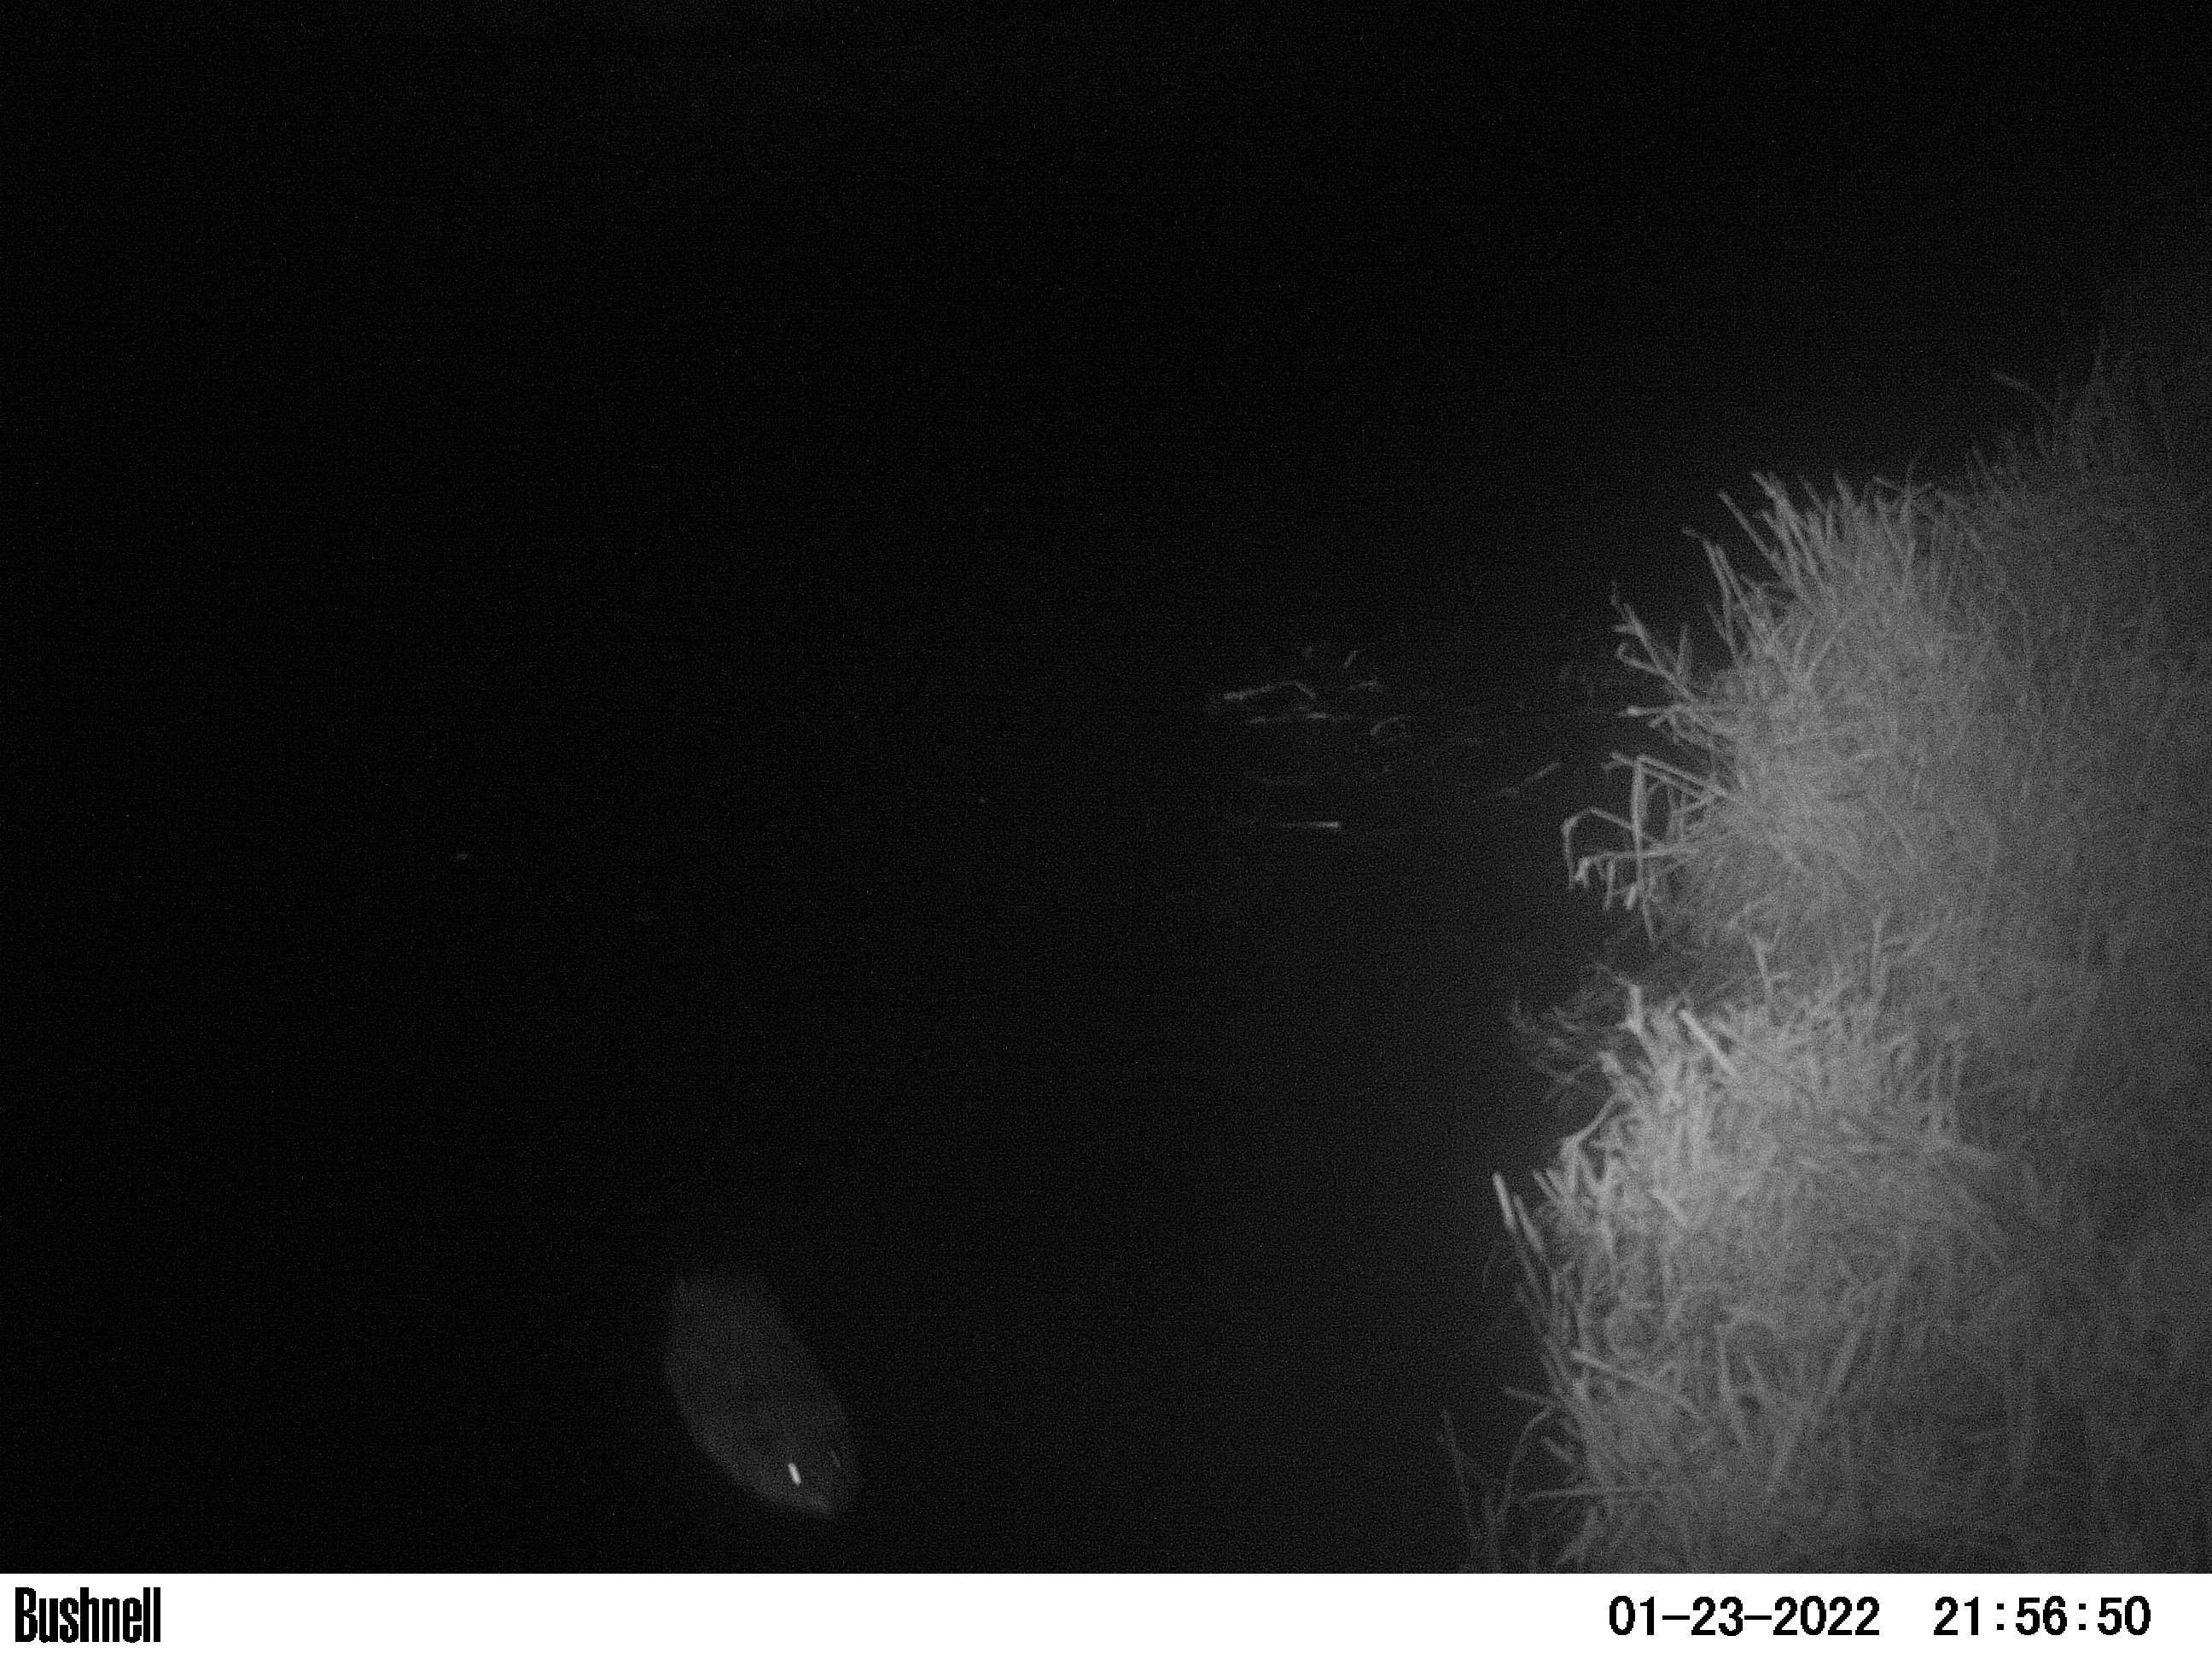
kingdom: Animalia
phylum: Chordata
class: Mammalia
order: Rodentia
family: Muridae
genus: Rattus
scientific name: Rattus norvegicus
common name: Brown rat
